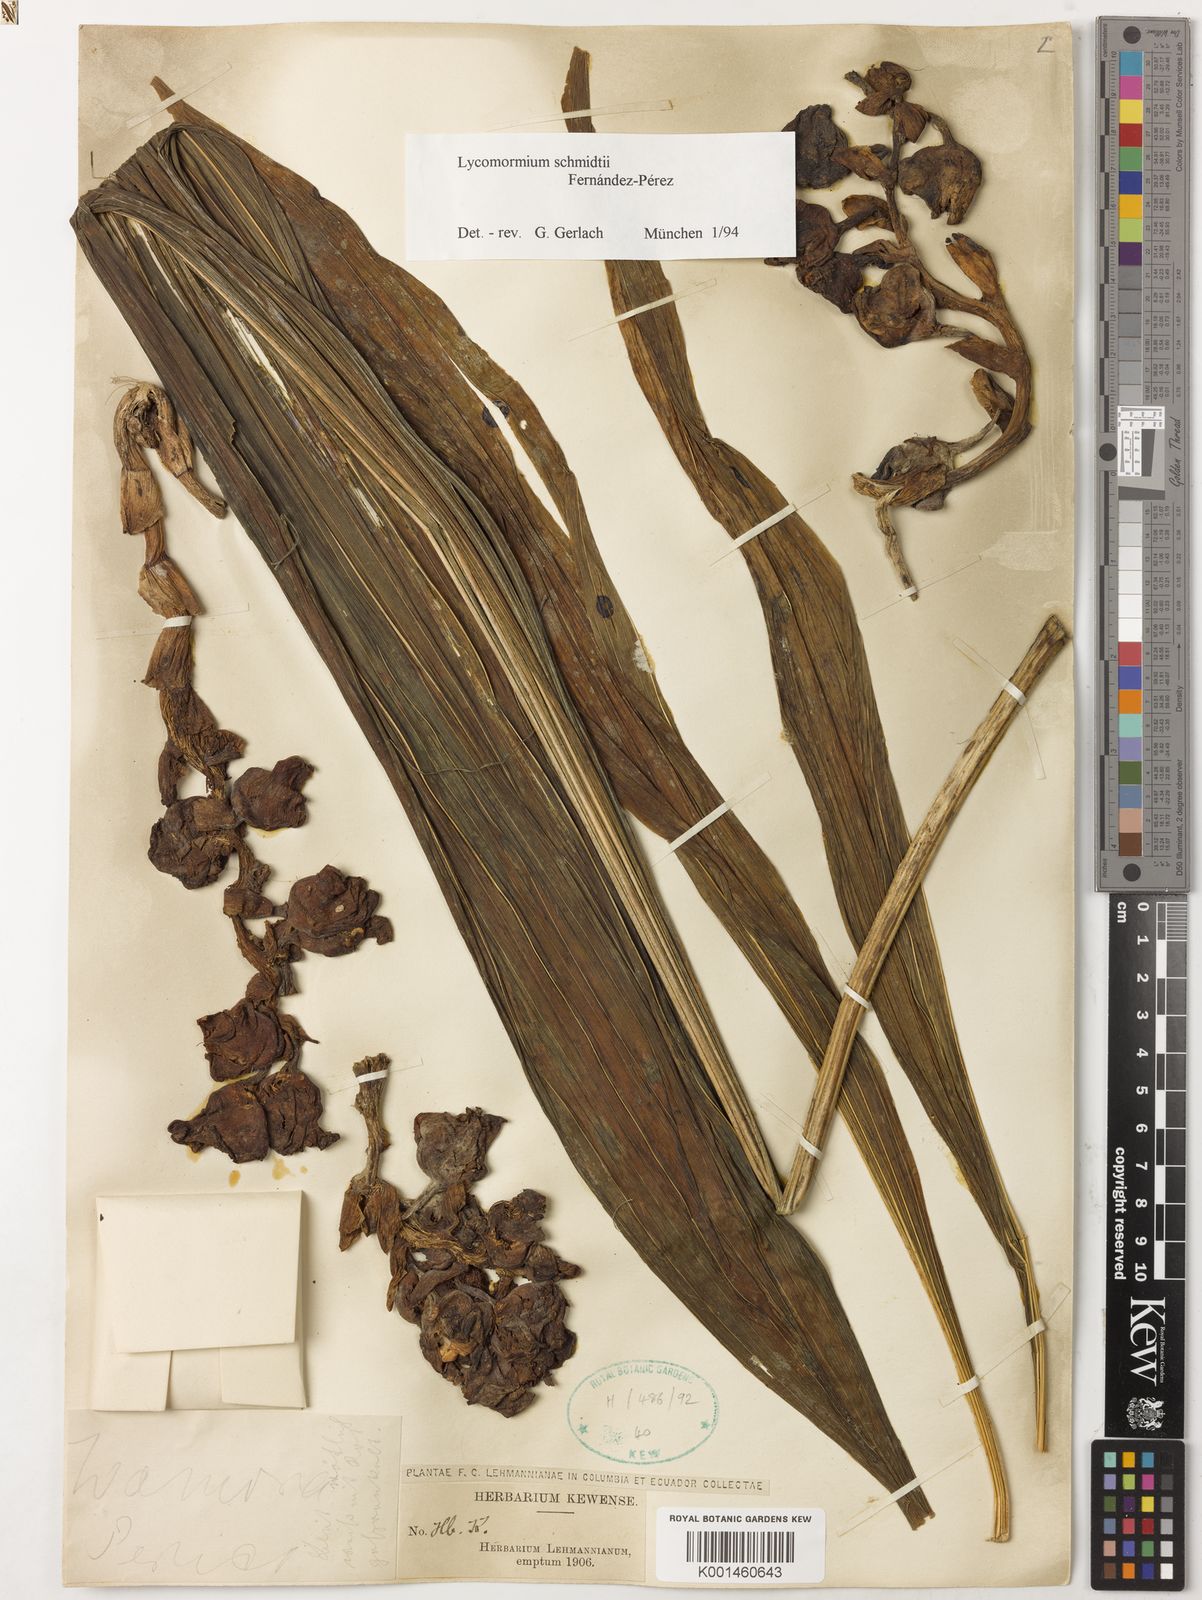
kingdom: Plantae
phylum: Tracheophyta
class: Liliopsida
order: Asparagales
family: Orchidaceae
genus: Lycomormium
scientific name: Lycomormium schmidtii
